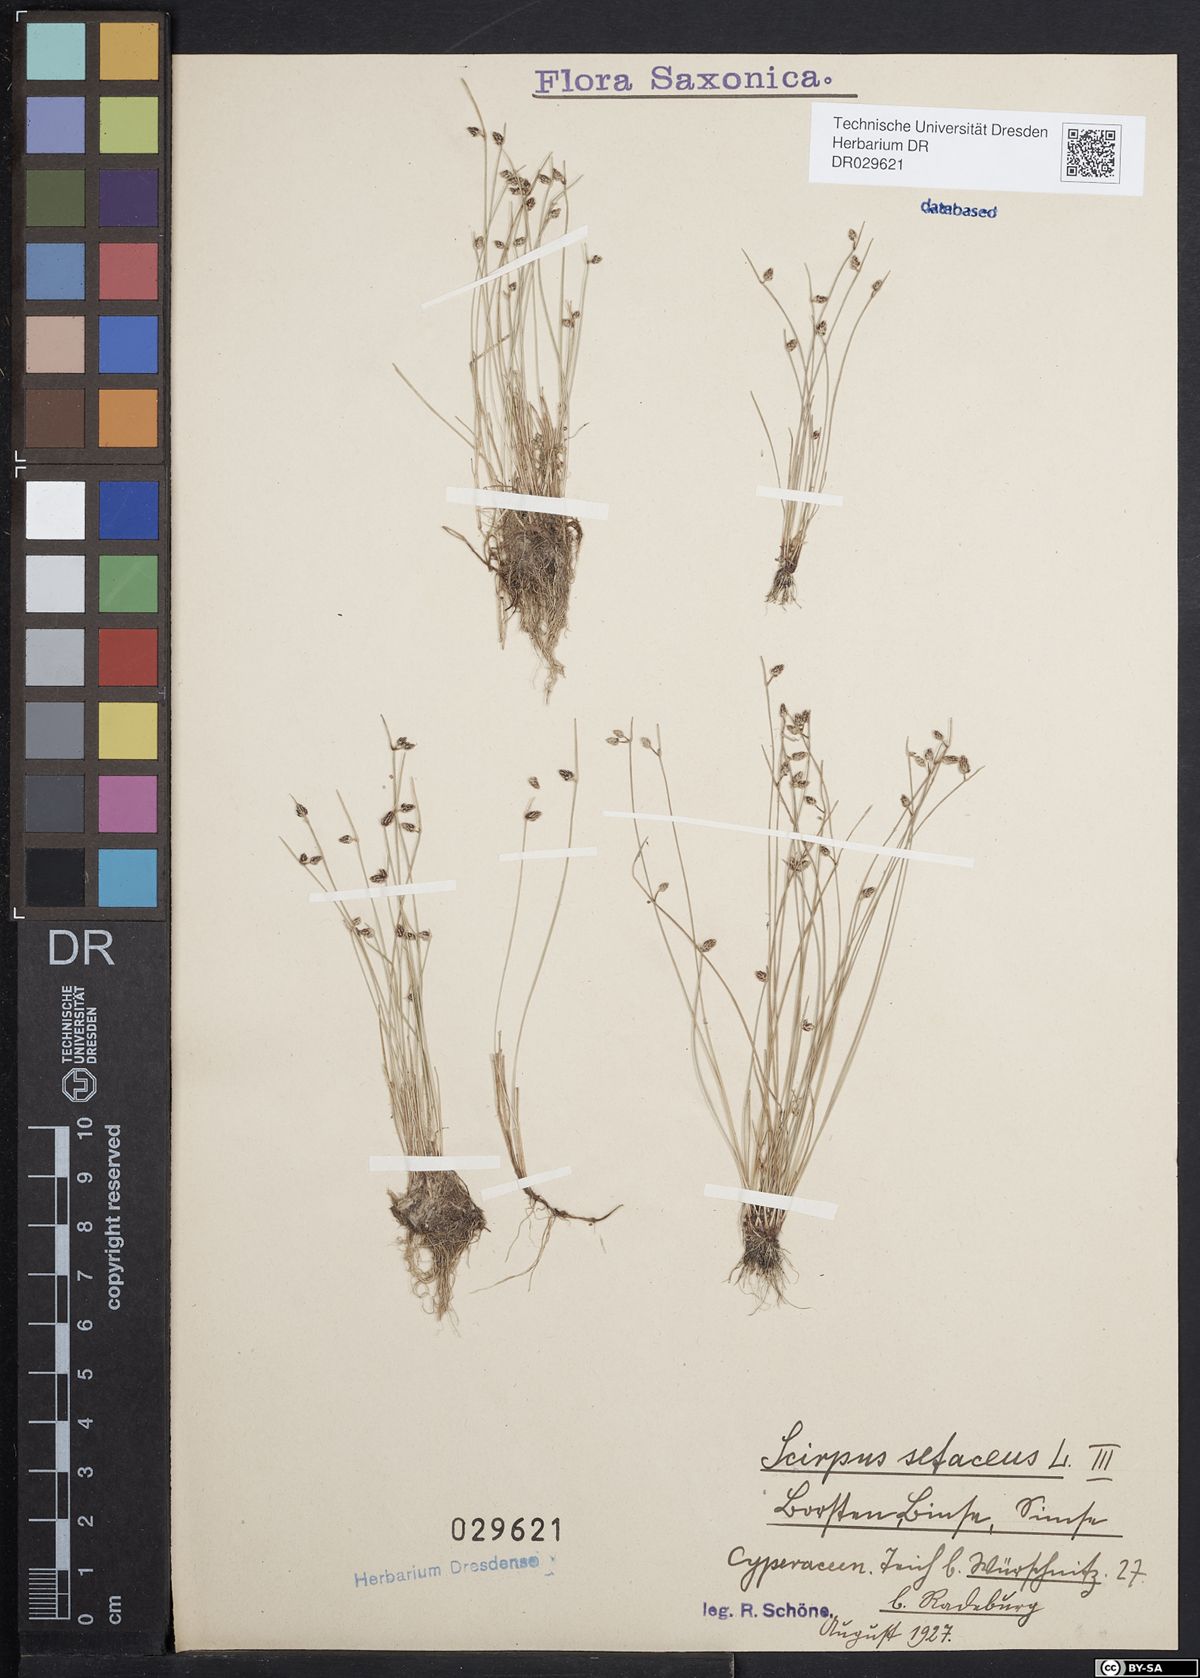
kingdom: Plantae
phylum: Tracheophyta
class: Liliopsida
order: Poales
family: Cyperaceae
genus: Isolepis
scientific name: Isolepis setacea
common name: Bristle club-rush
